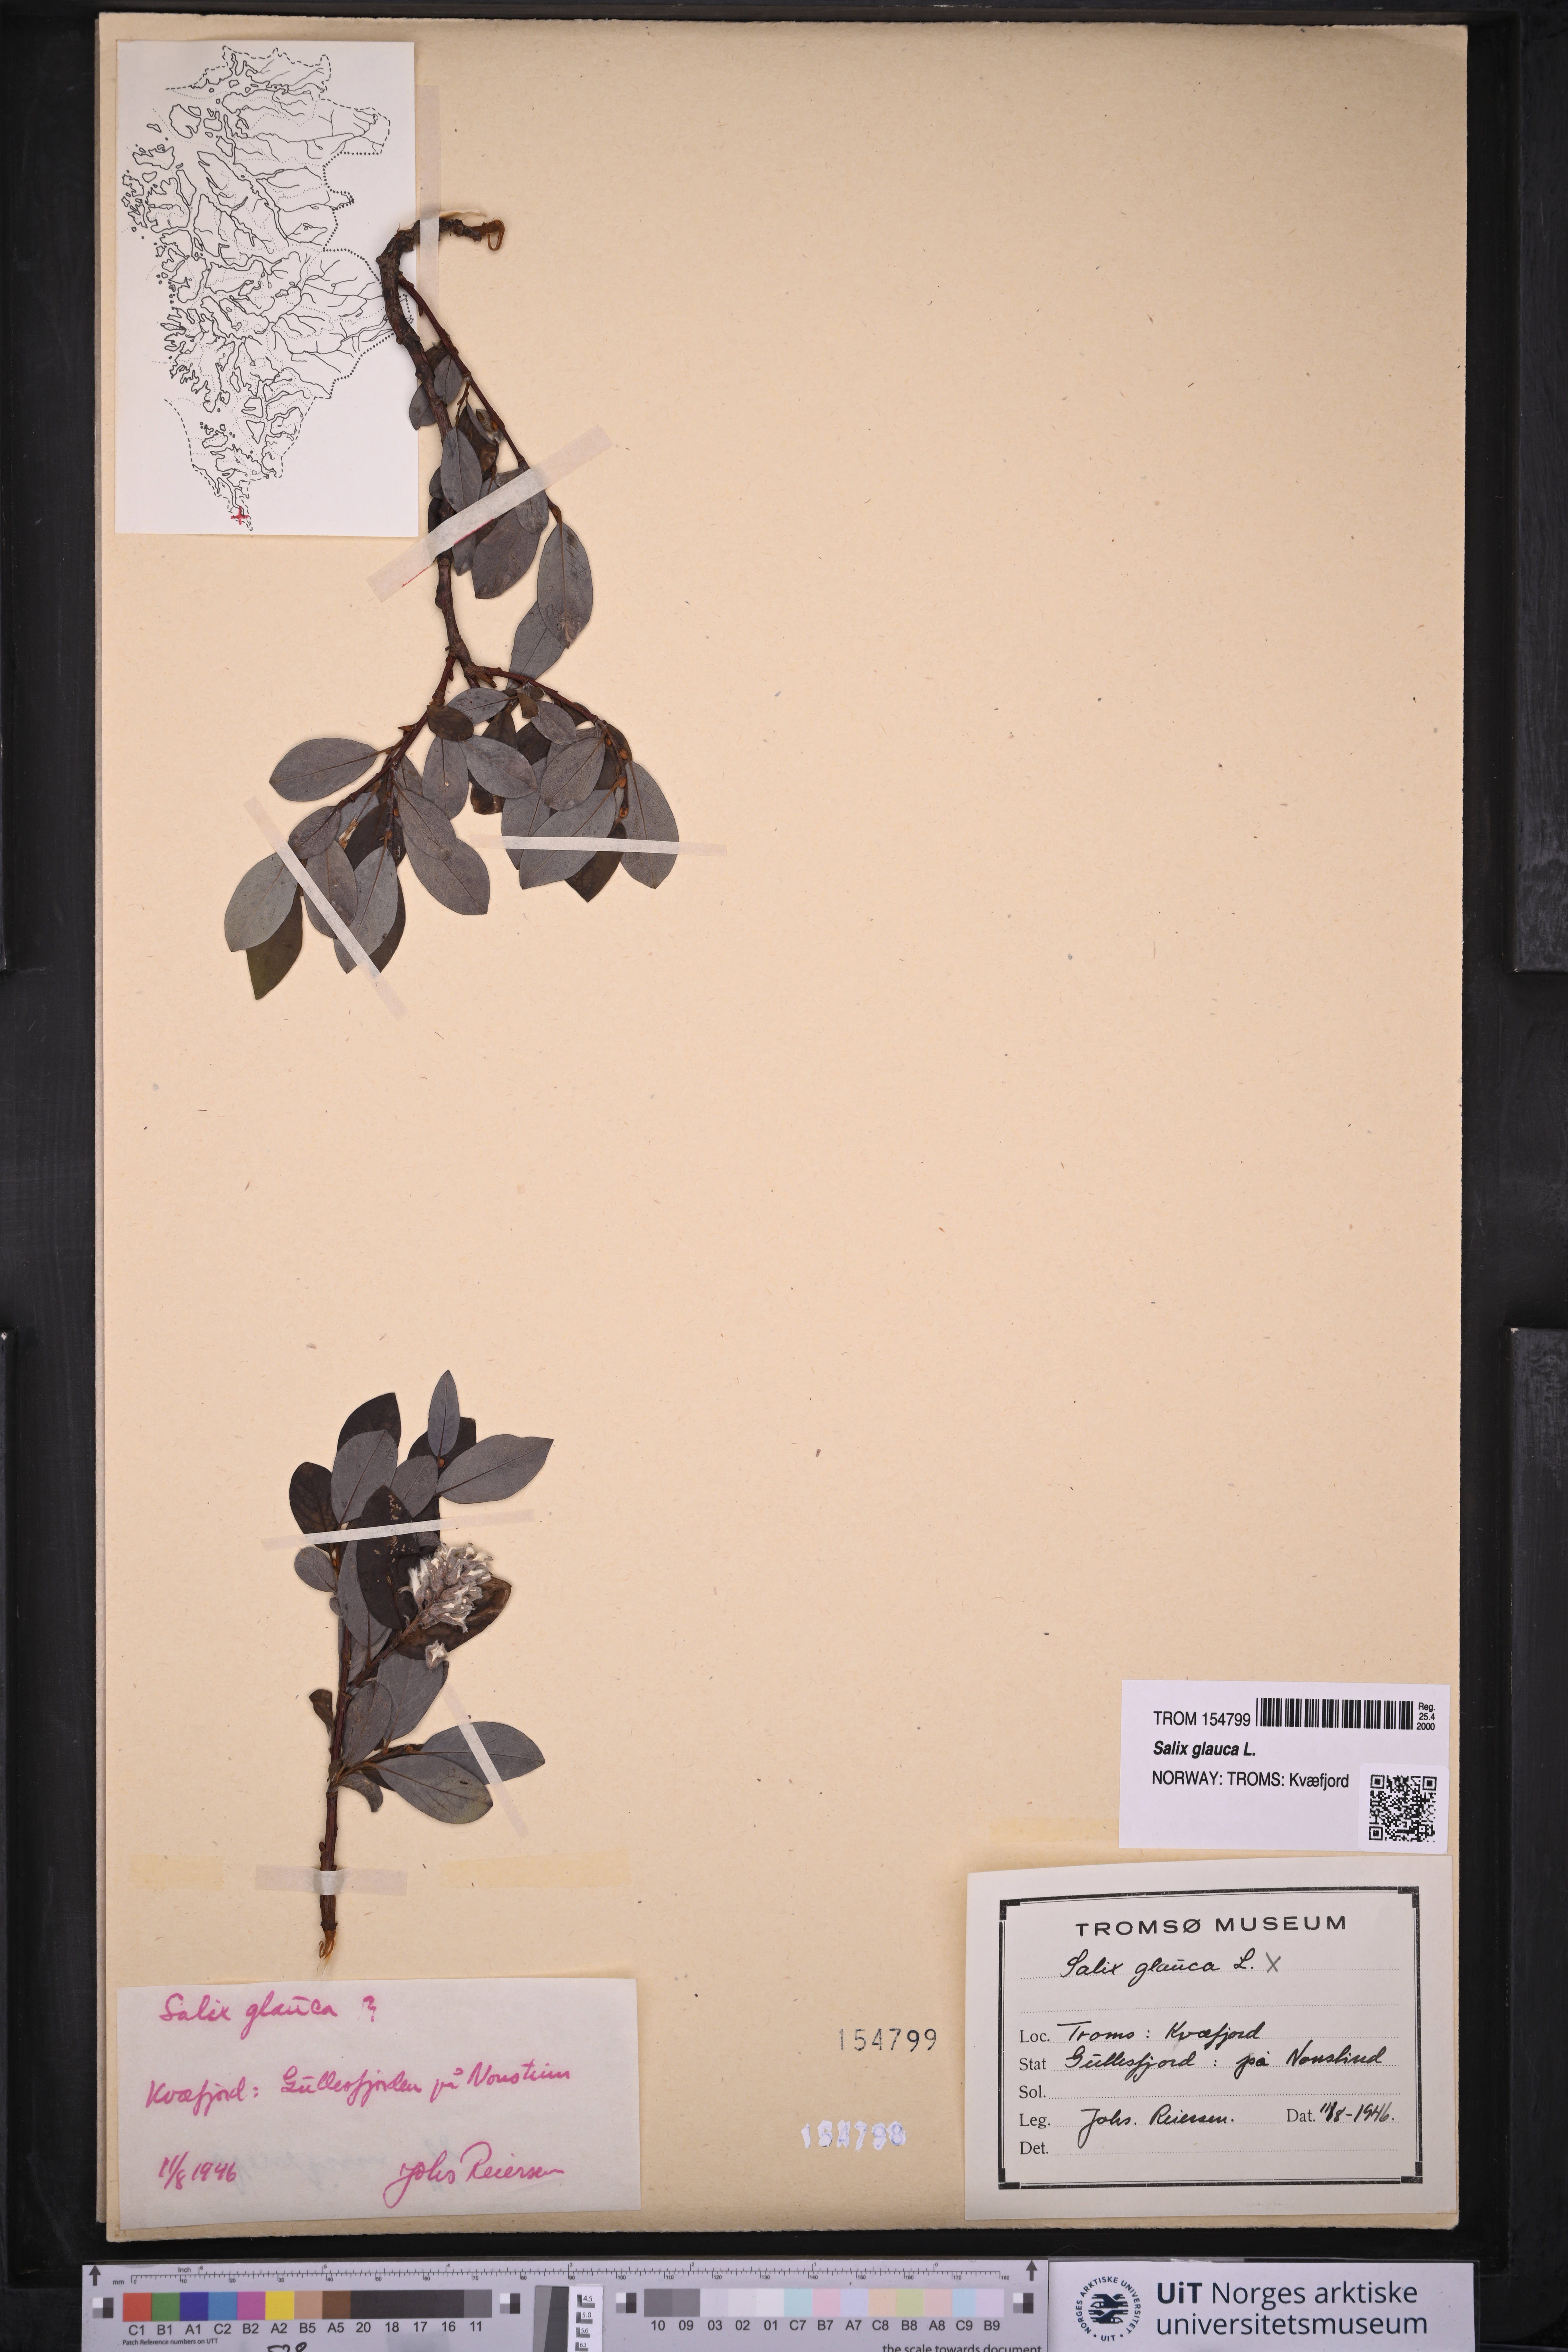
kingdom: Plantae
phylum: Tracheophyta
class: Magnoliopsida
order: Malpighiales
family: Salicaceae
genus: Salix
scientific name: Salix glauca
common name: Glaucous willow
